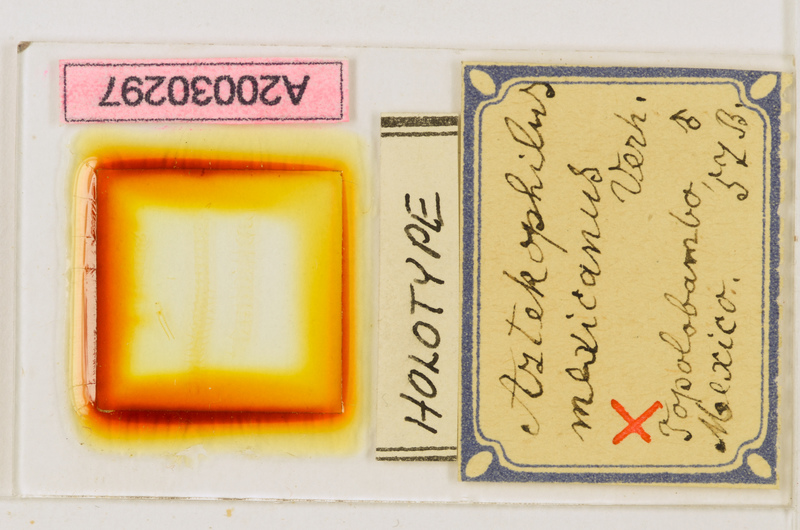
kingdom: Animalia
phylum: Arthropoda
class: Chilopoda
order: Geophilomorpha
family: Geophilidae
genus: Arctogeophilus
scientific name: Arctogeophilus sachalinus
